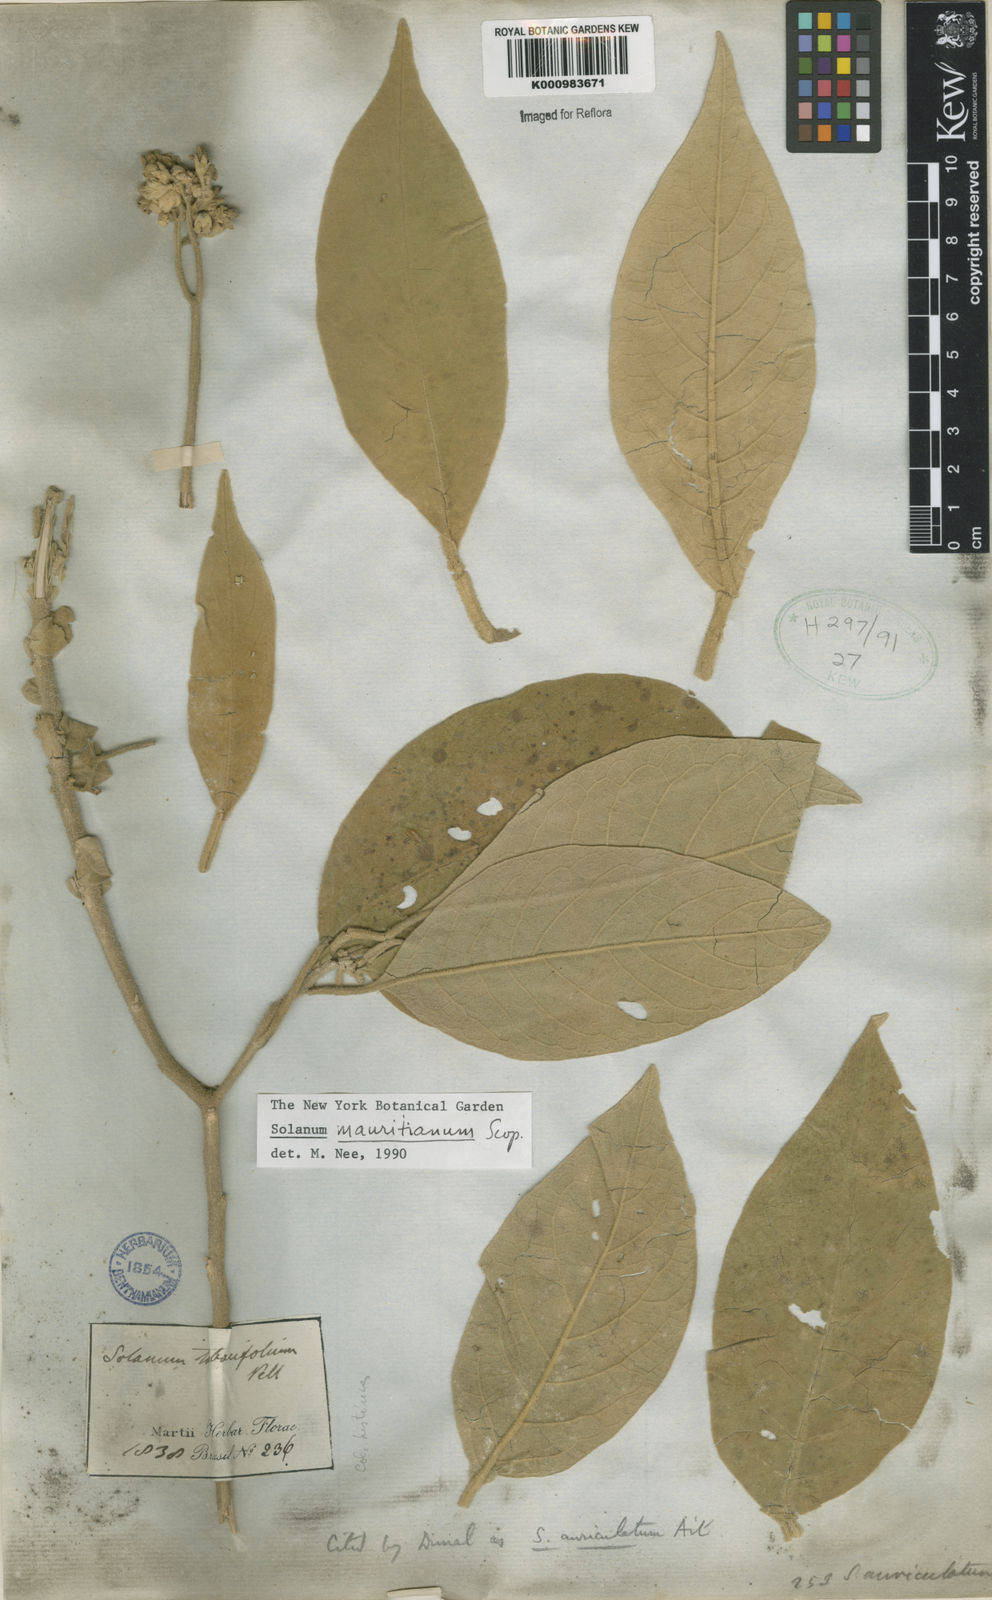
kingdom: Plantae
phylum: Tracheophyta
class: Magnoliopsida
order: Solanales
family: Solanaceae
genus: Solanum
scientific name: Solanum mauritianum
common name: Earleaf nightshade
